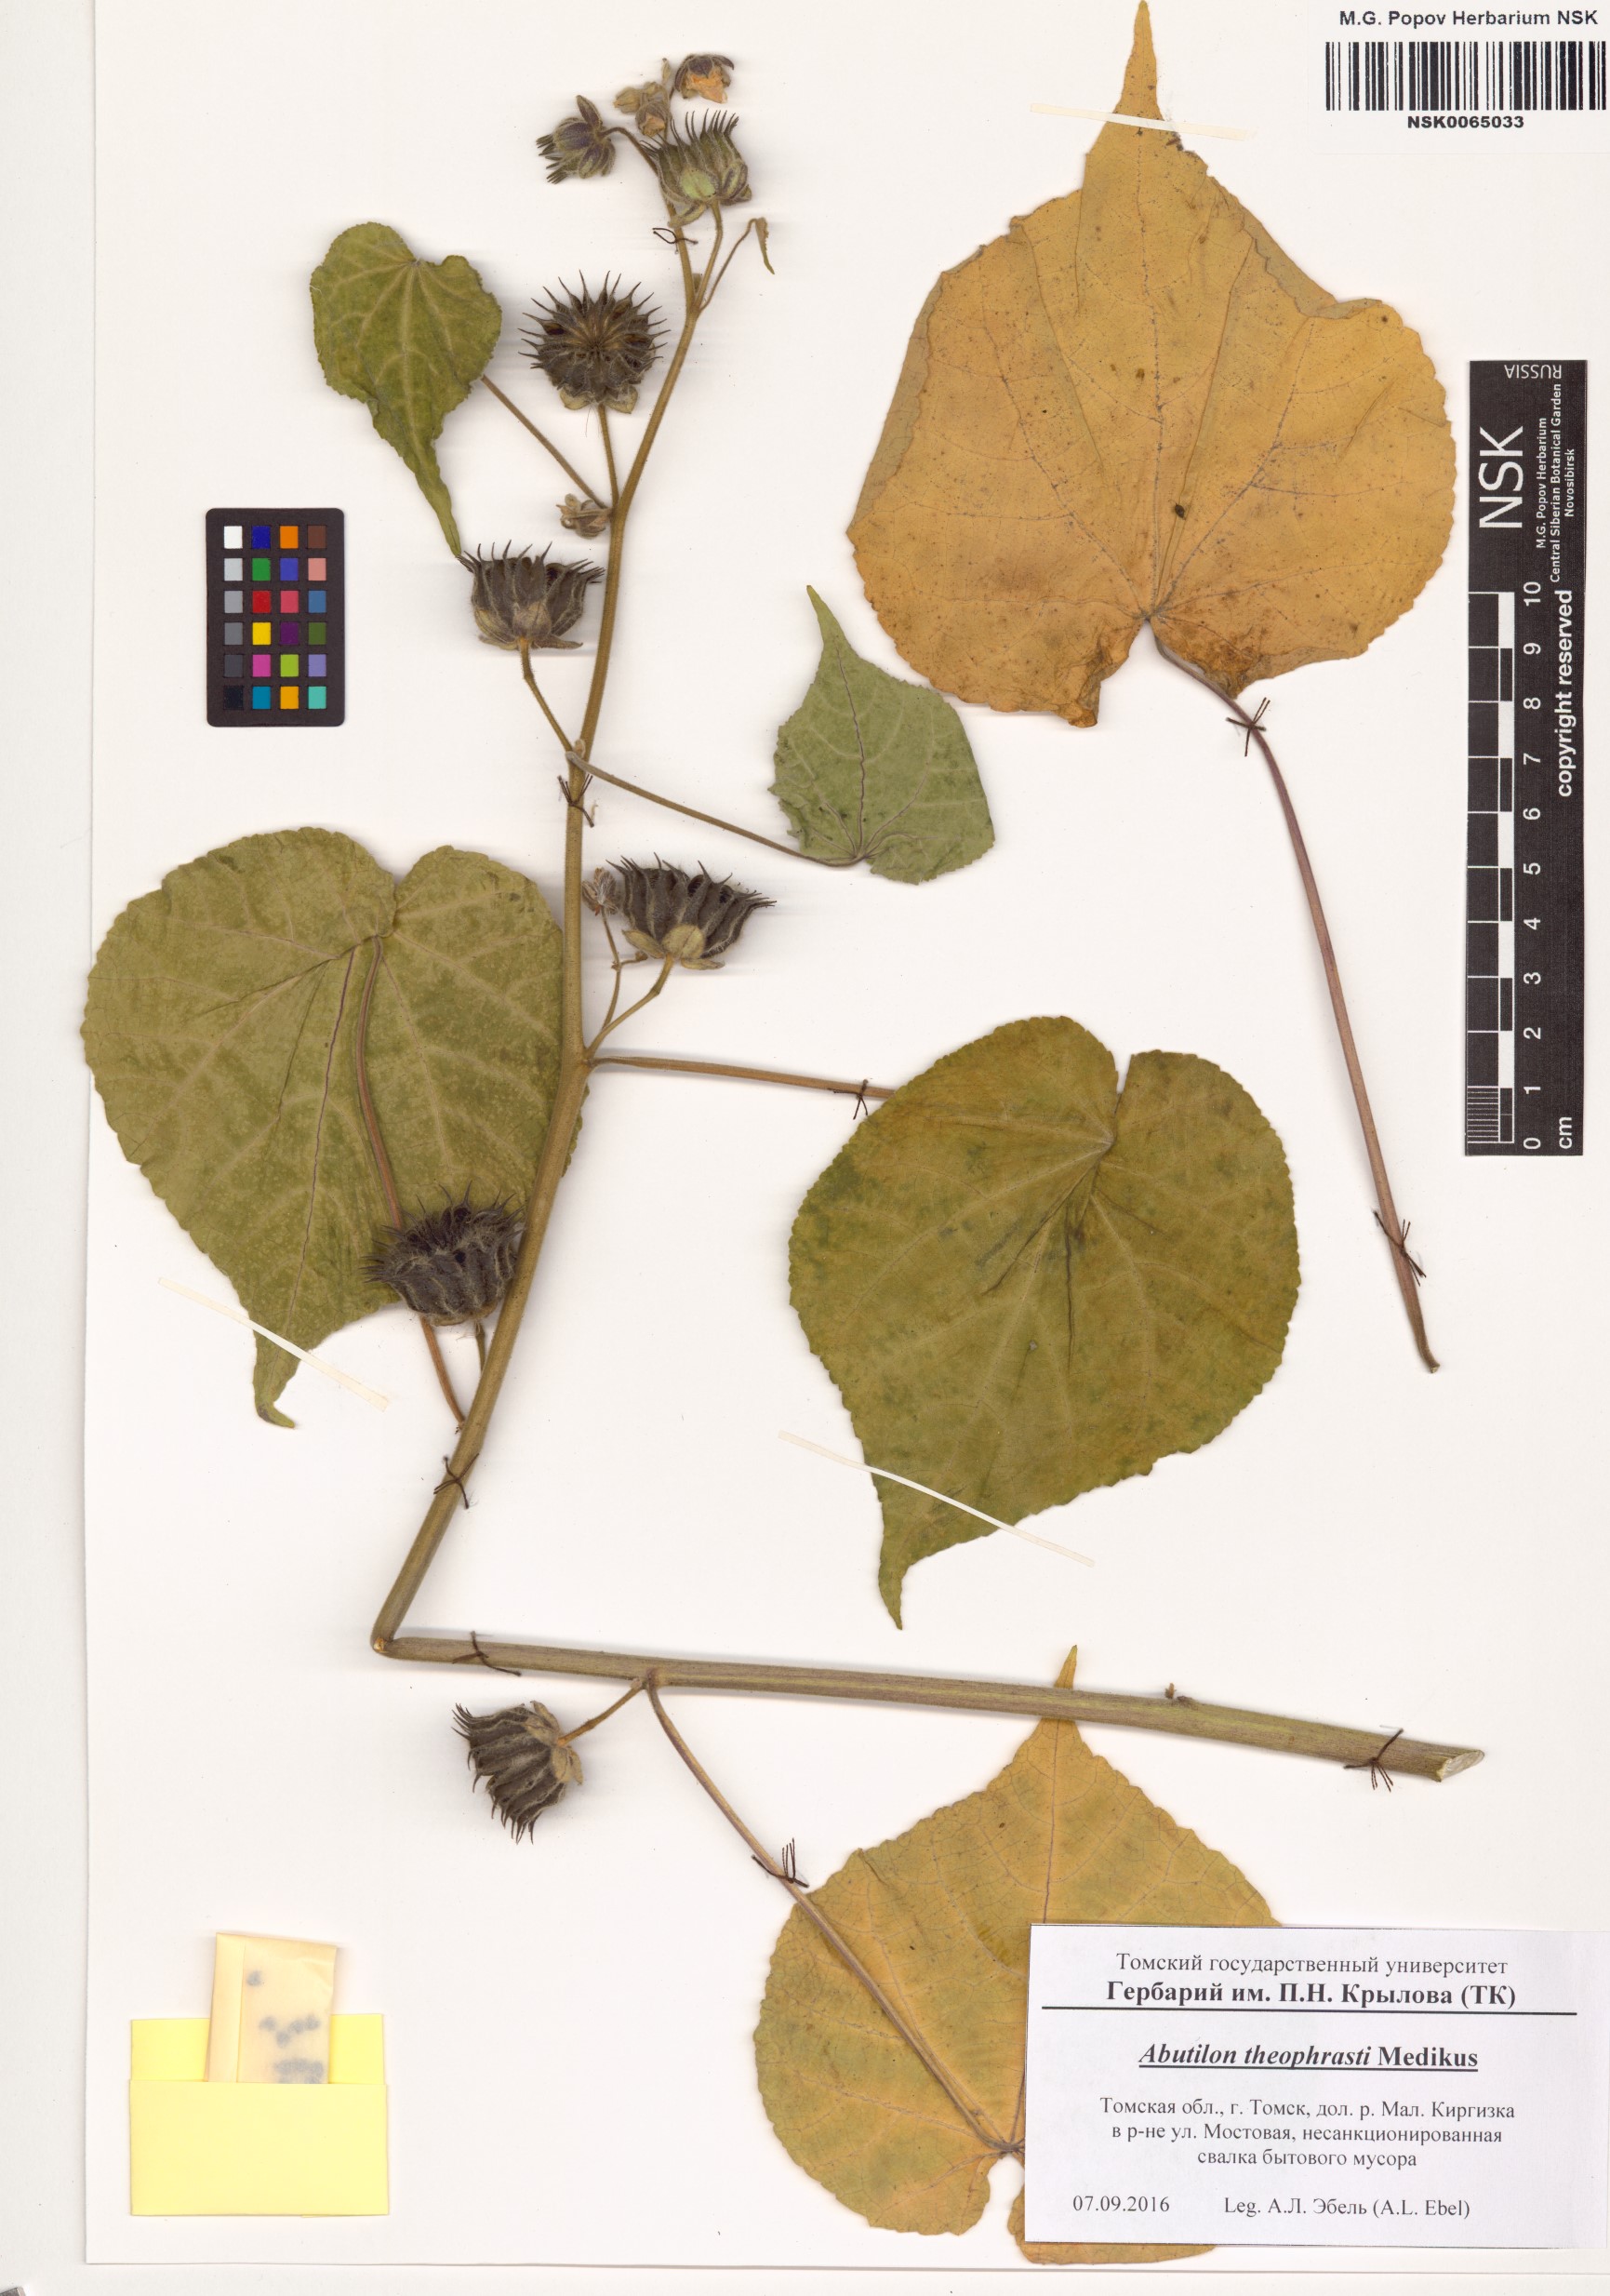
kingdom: Plantae
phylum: Tracheophyta
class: Magnoliopsida
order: Malvales
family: Malvaceae
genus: Abutilon
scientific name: Abutilon theophrasti
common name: Velvetleaf
